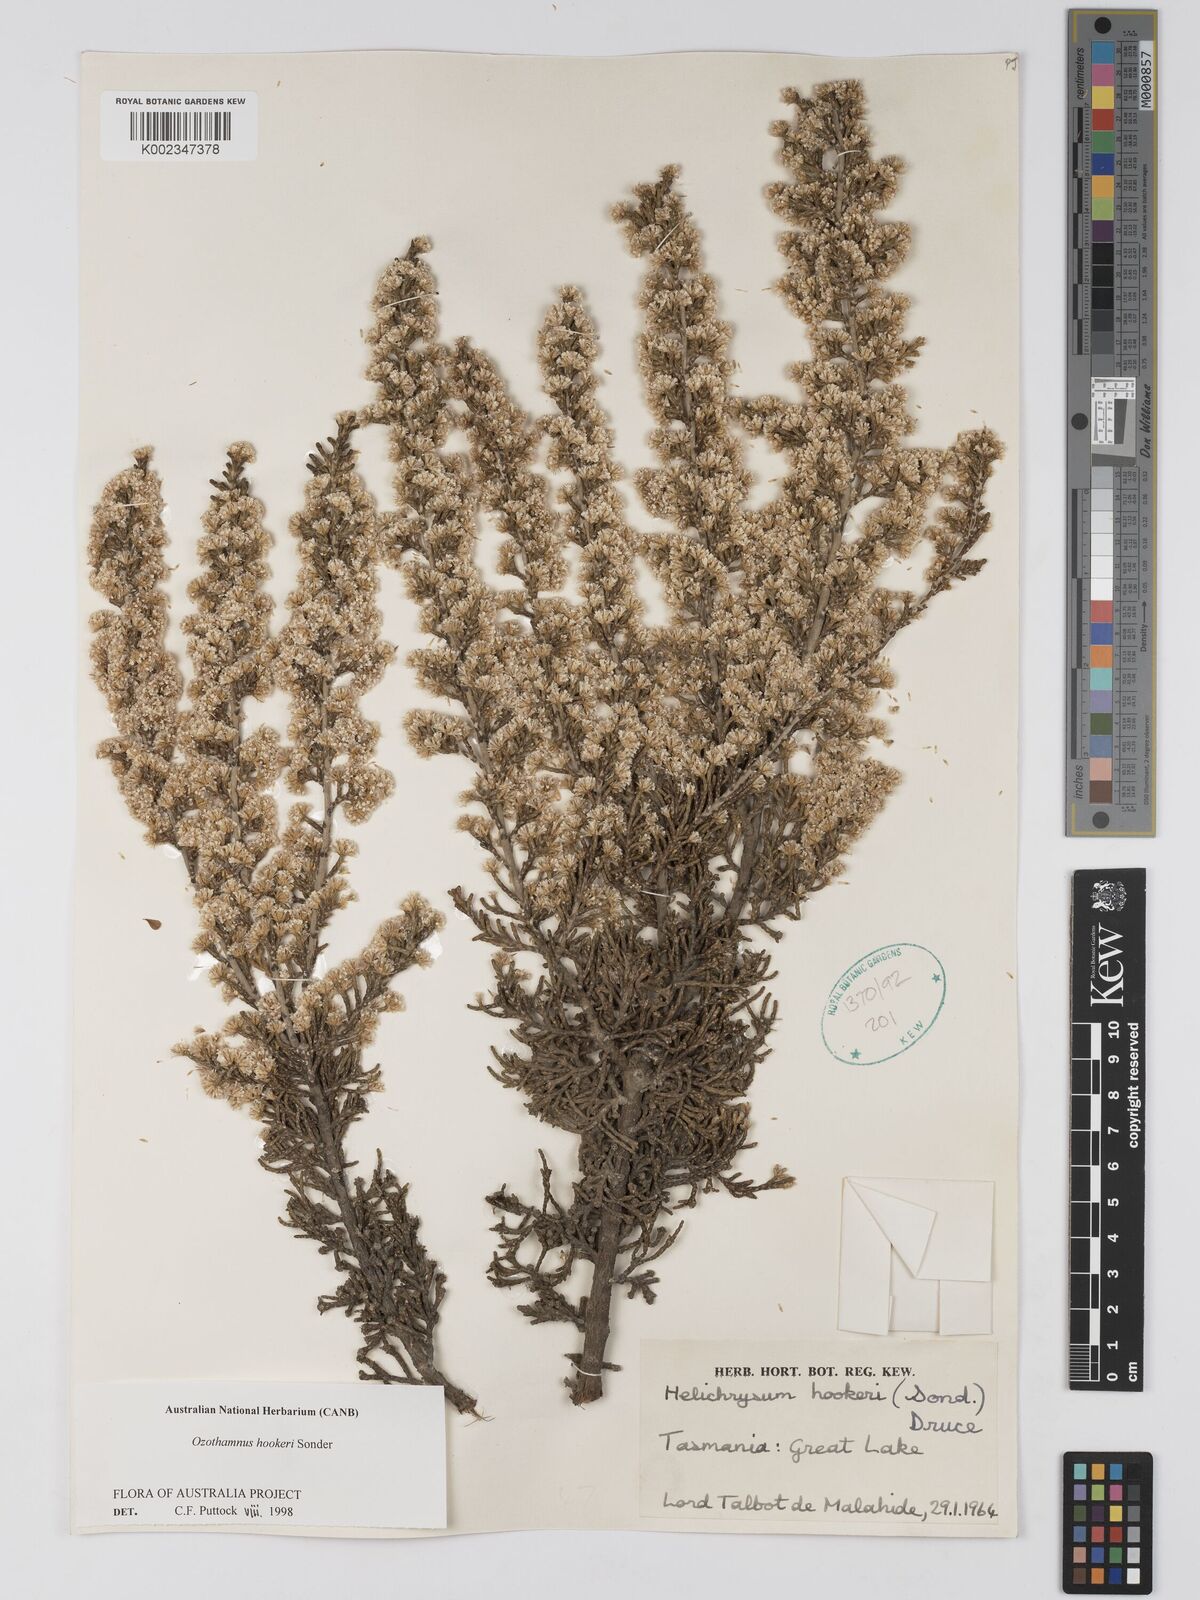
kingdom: Plantae
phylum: Tracheophyta
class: Magnoliopsida
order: Asterales
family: Asteraceae
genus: Ozothamnus
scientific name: Ozothamnus hookeri
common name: Kerosene-bush
